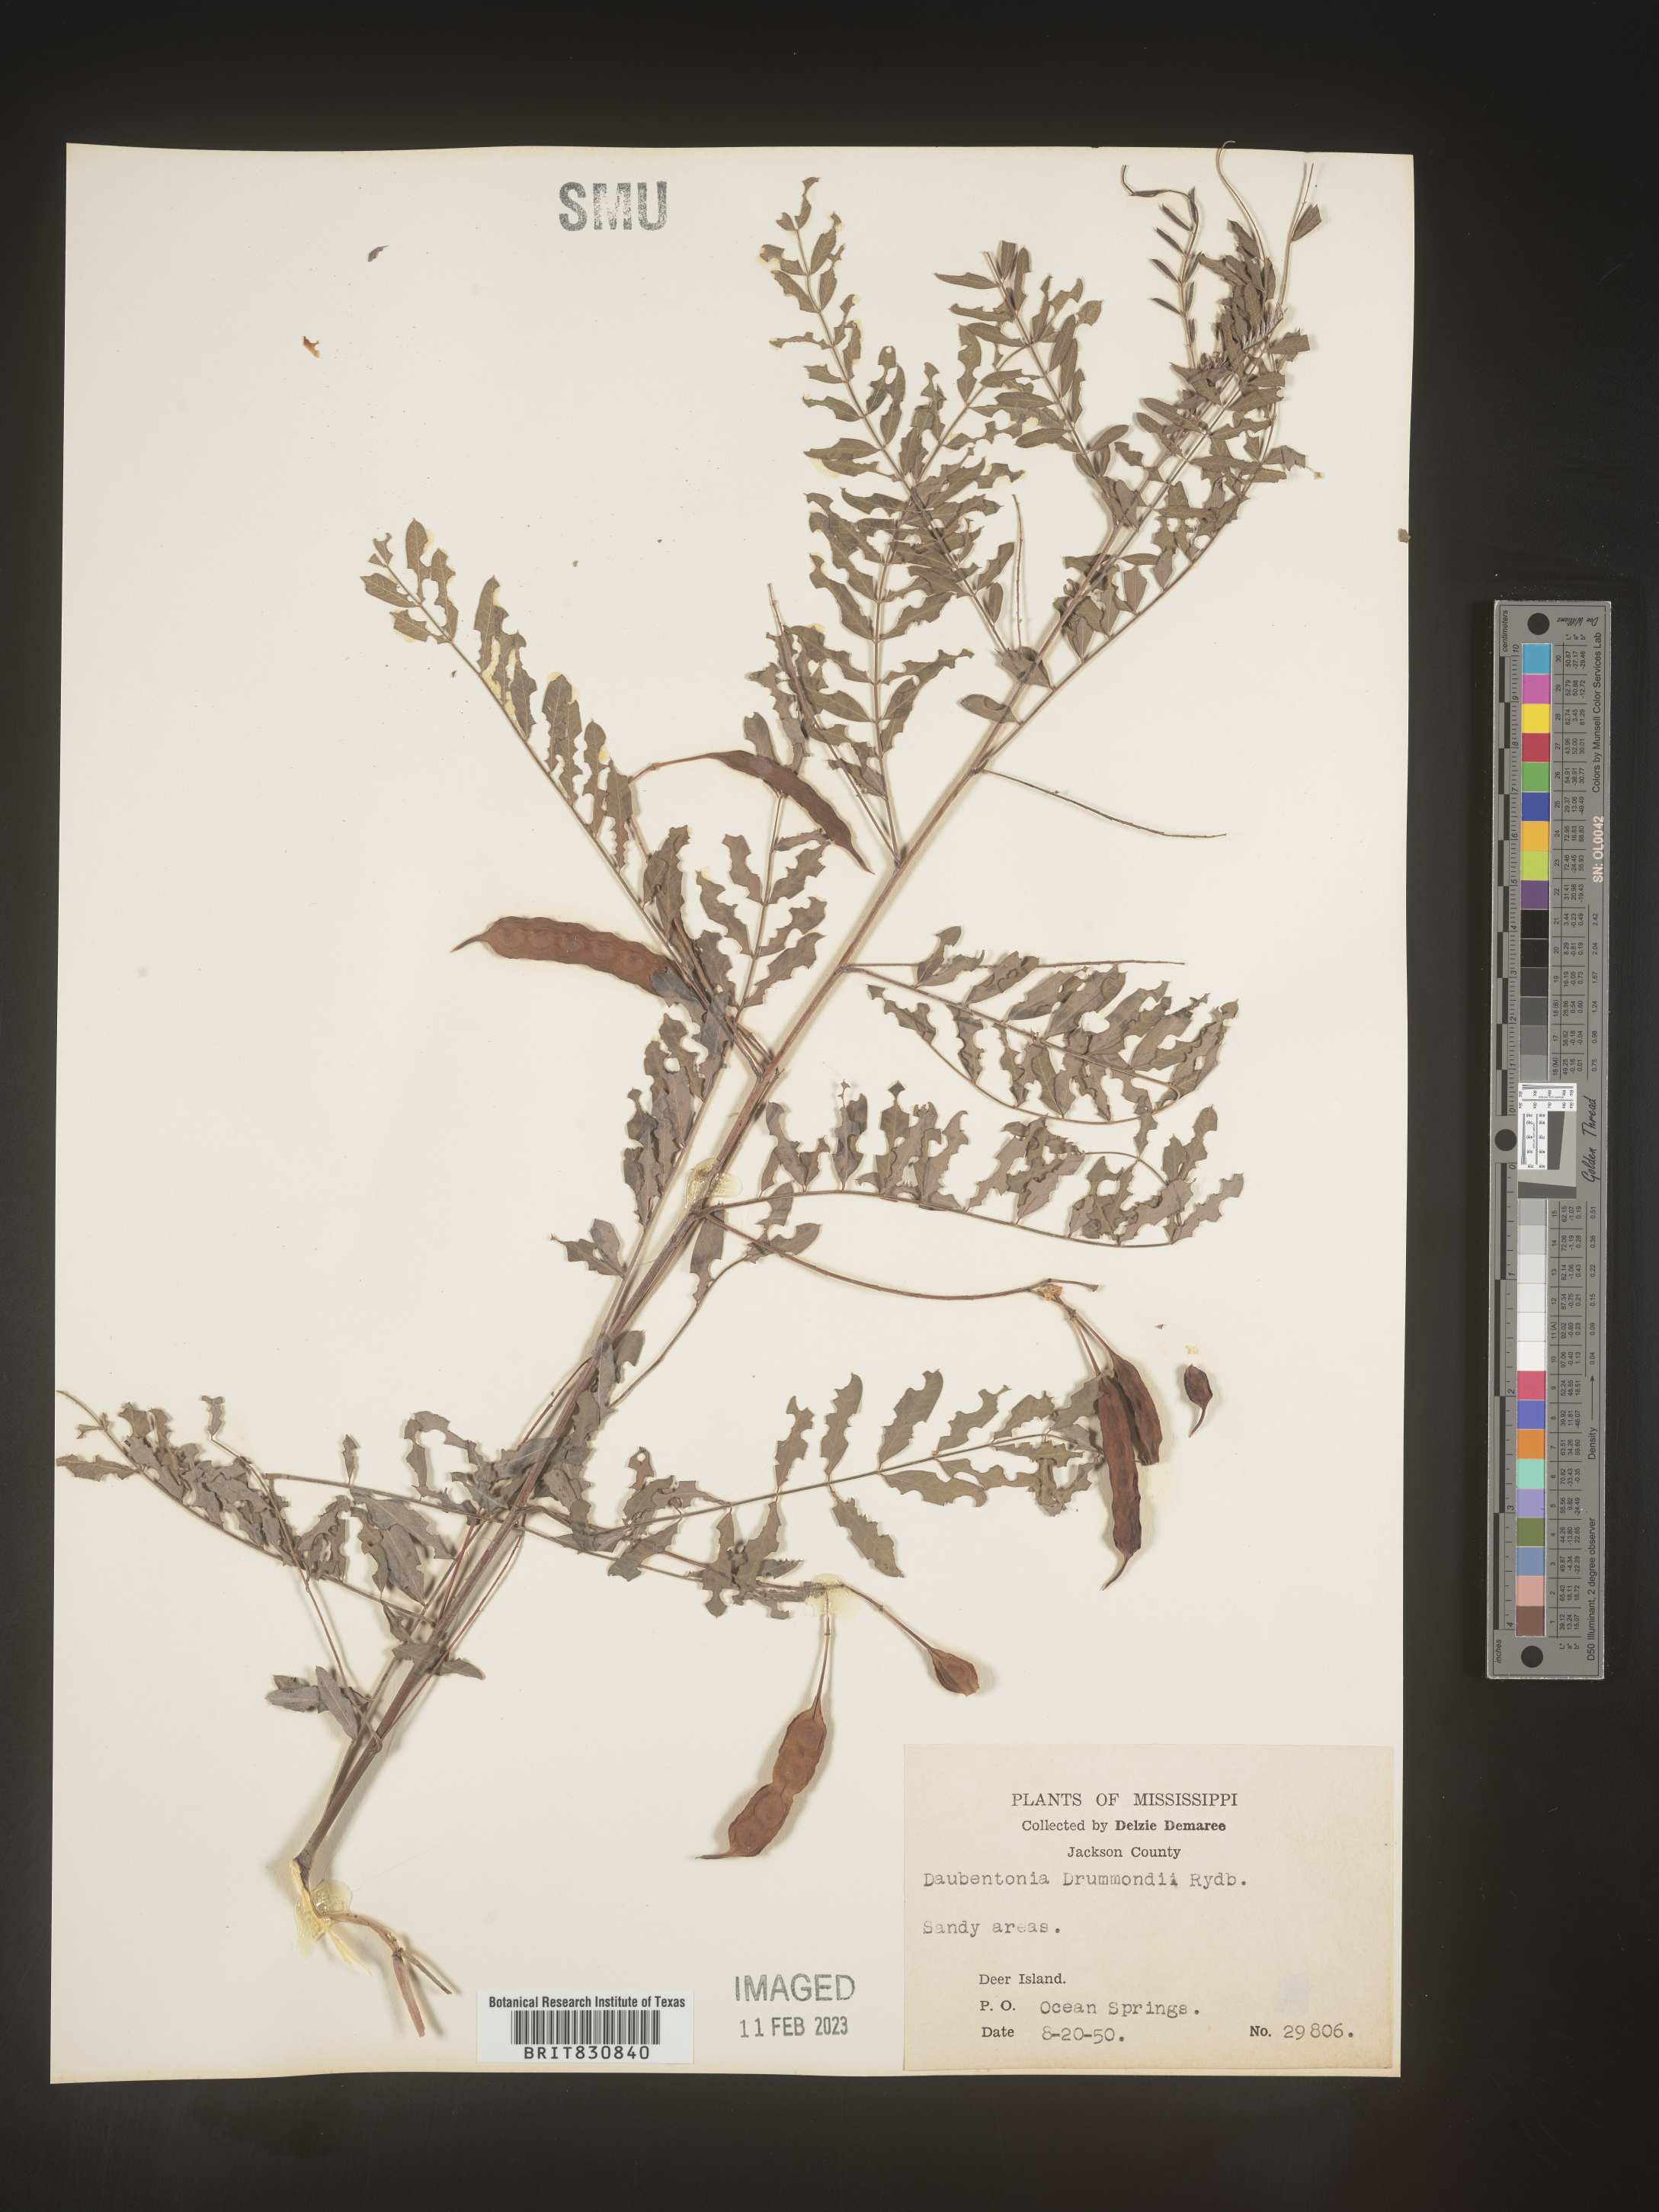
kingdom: Plantae
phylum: Tracheophyta
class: Magnoliopsida
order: Fabales
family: Fabaceae
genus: Sesbania
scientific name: Sesbania drummondii
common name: Poison-bean
